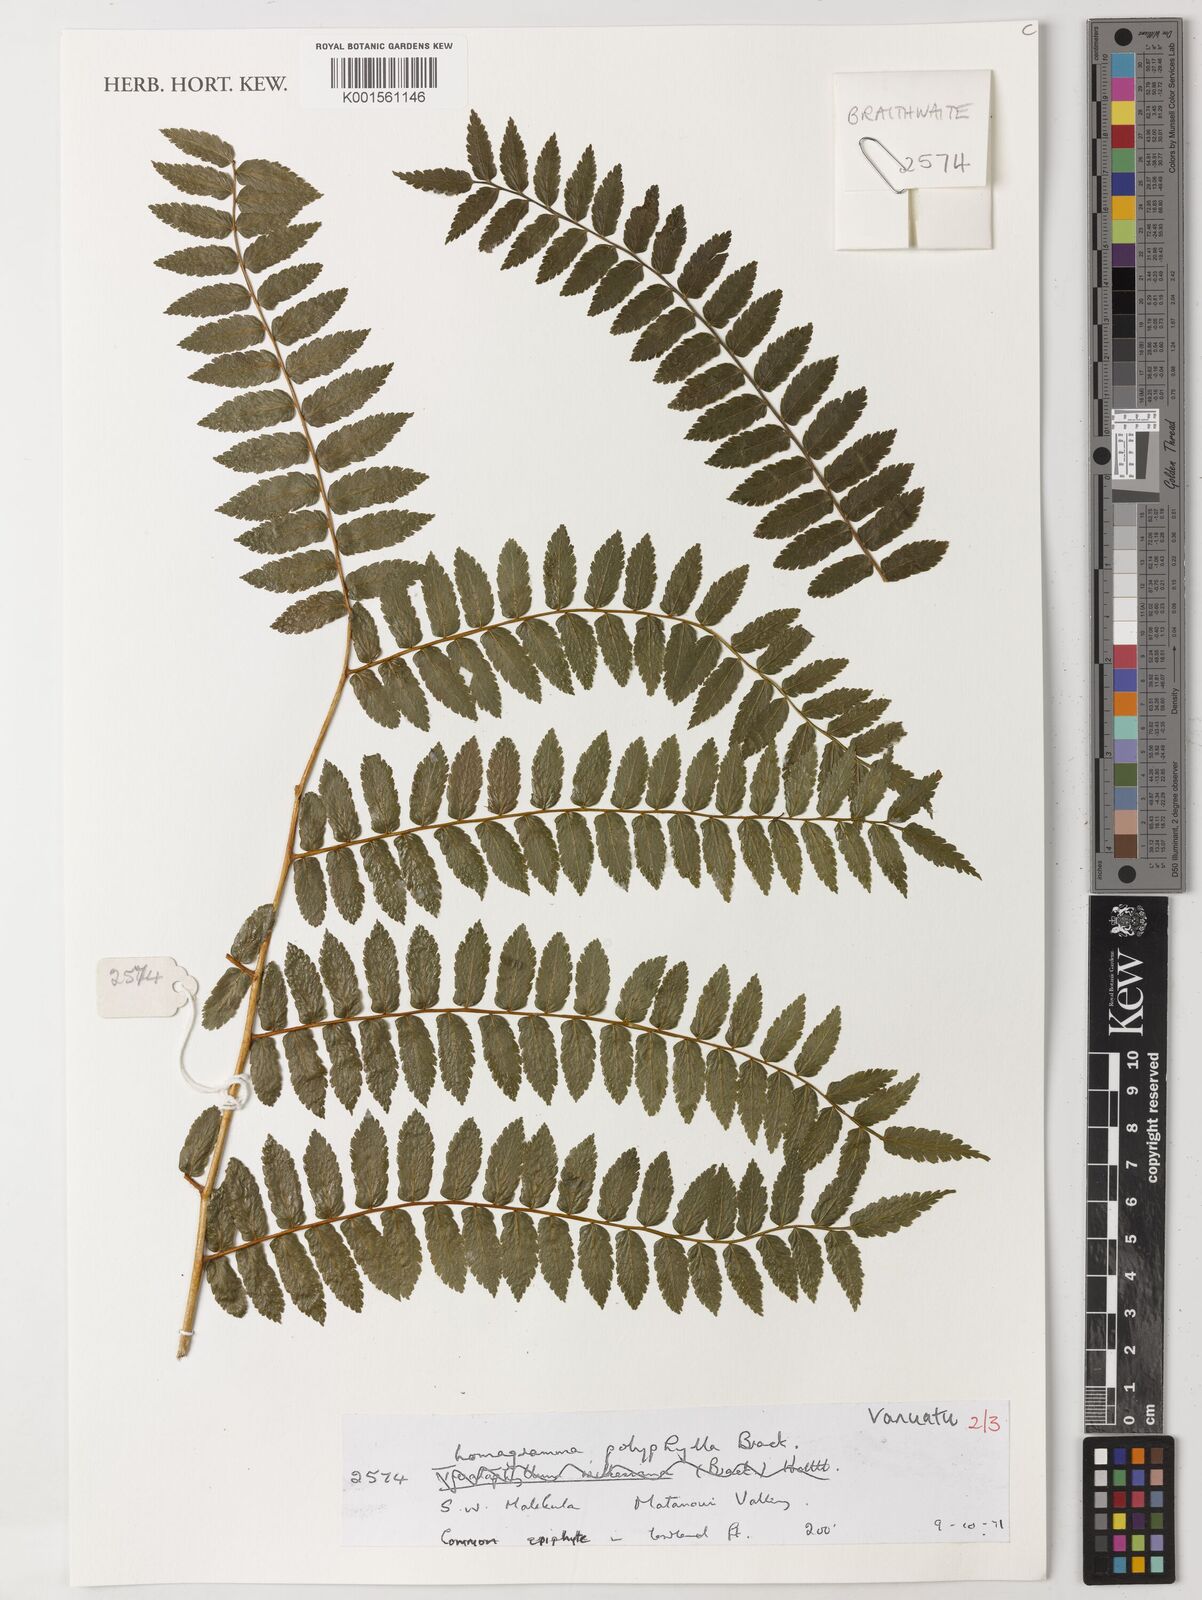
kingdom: Plantae
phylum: Tracheophyta
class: Polypodiopsida
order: Polypodiales
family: Dryopteridaceae
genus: Lomagramma
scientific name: Lomagramma polyphylla
